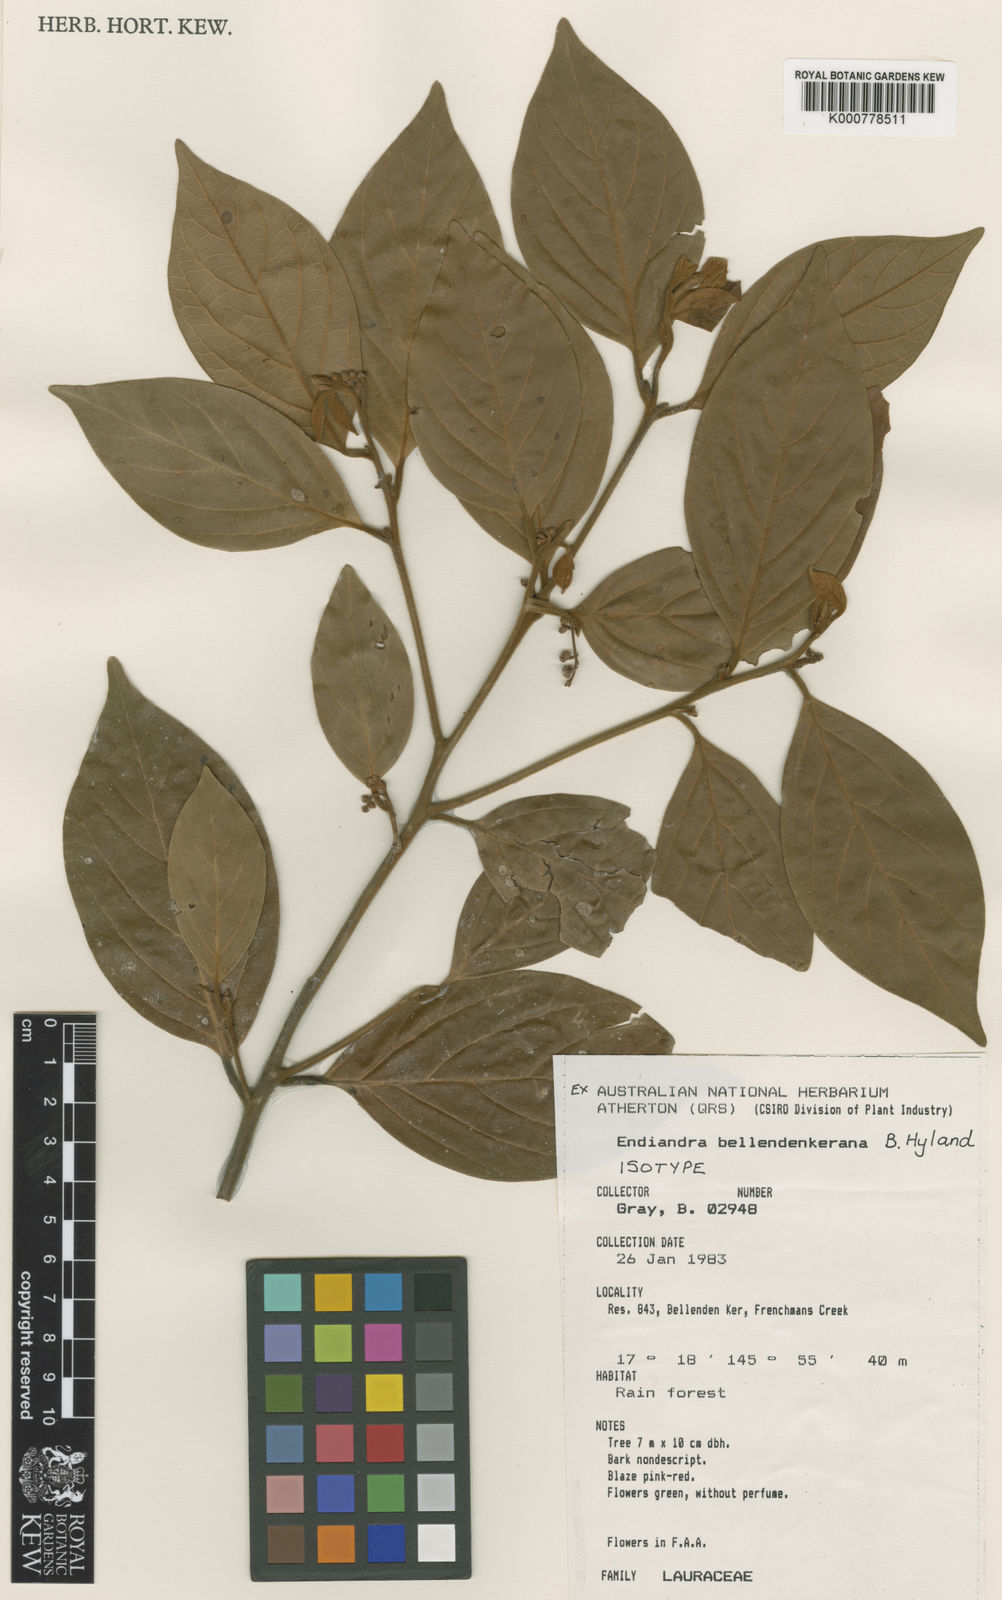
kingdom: Plantae
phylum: Tracheophyta
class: Magnoliopsida
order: Laurales
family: Lauraceae
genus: Endiandra
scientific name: Endiandra bellendenkerana
